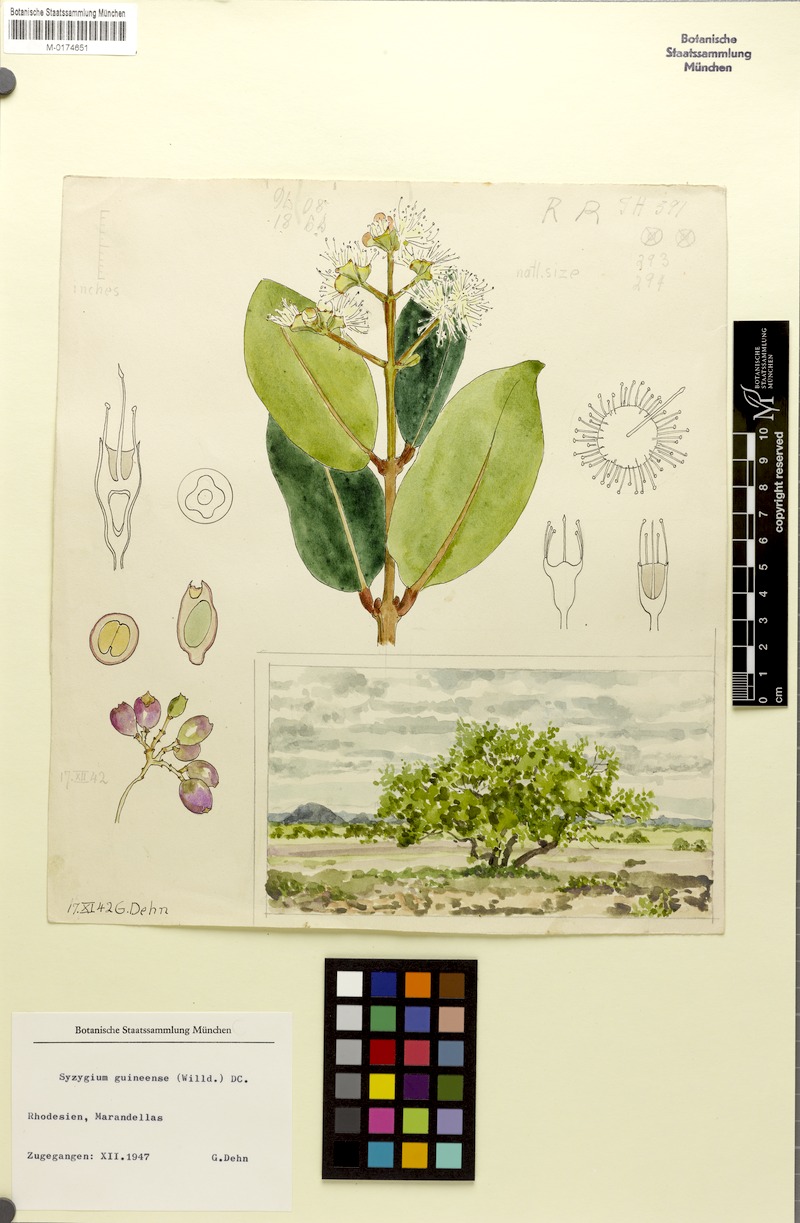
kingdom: Plantae
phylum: Tracheophyta
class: Magnoliopsida
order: Myrtales
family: Myrtaceae
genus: Syzygium
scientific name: Syzygium guineense
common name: Water-pear
